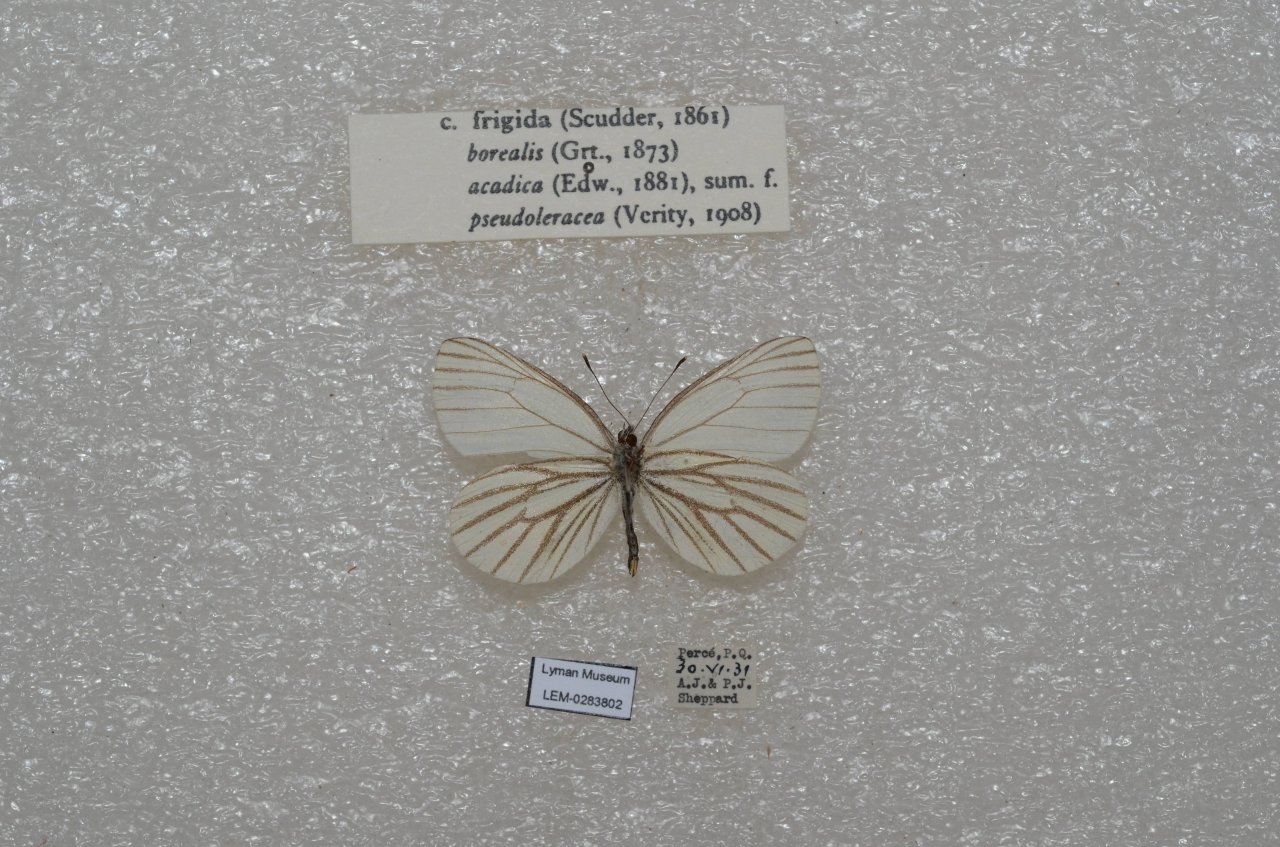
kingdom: Animalia
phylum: Arthropoda
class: Insecta
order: Lepidoptera
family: Pieridae
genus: Pieris
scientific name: Pieris oleracea
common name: Mustard White
